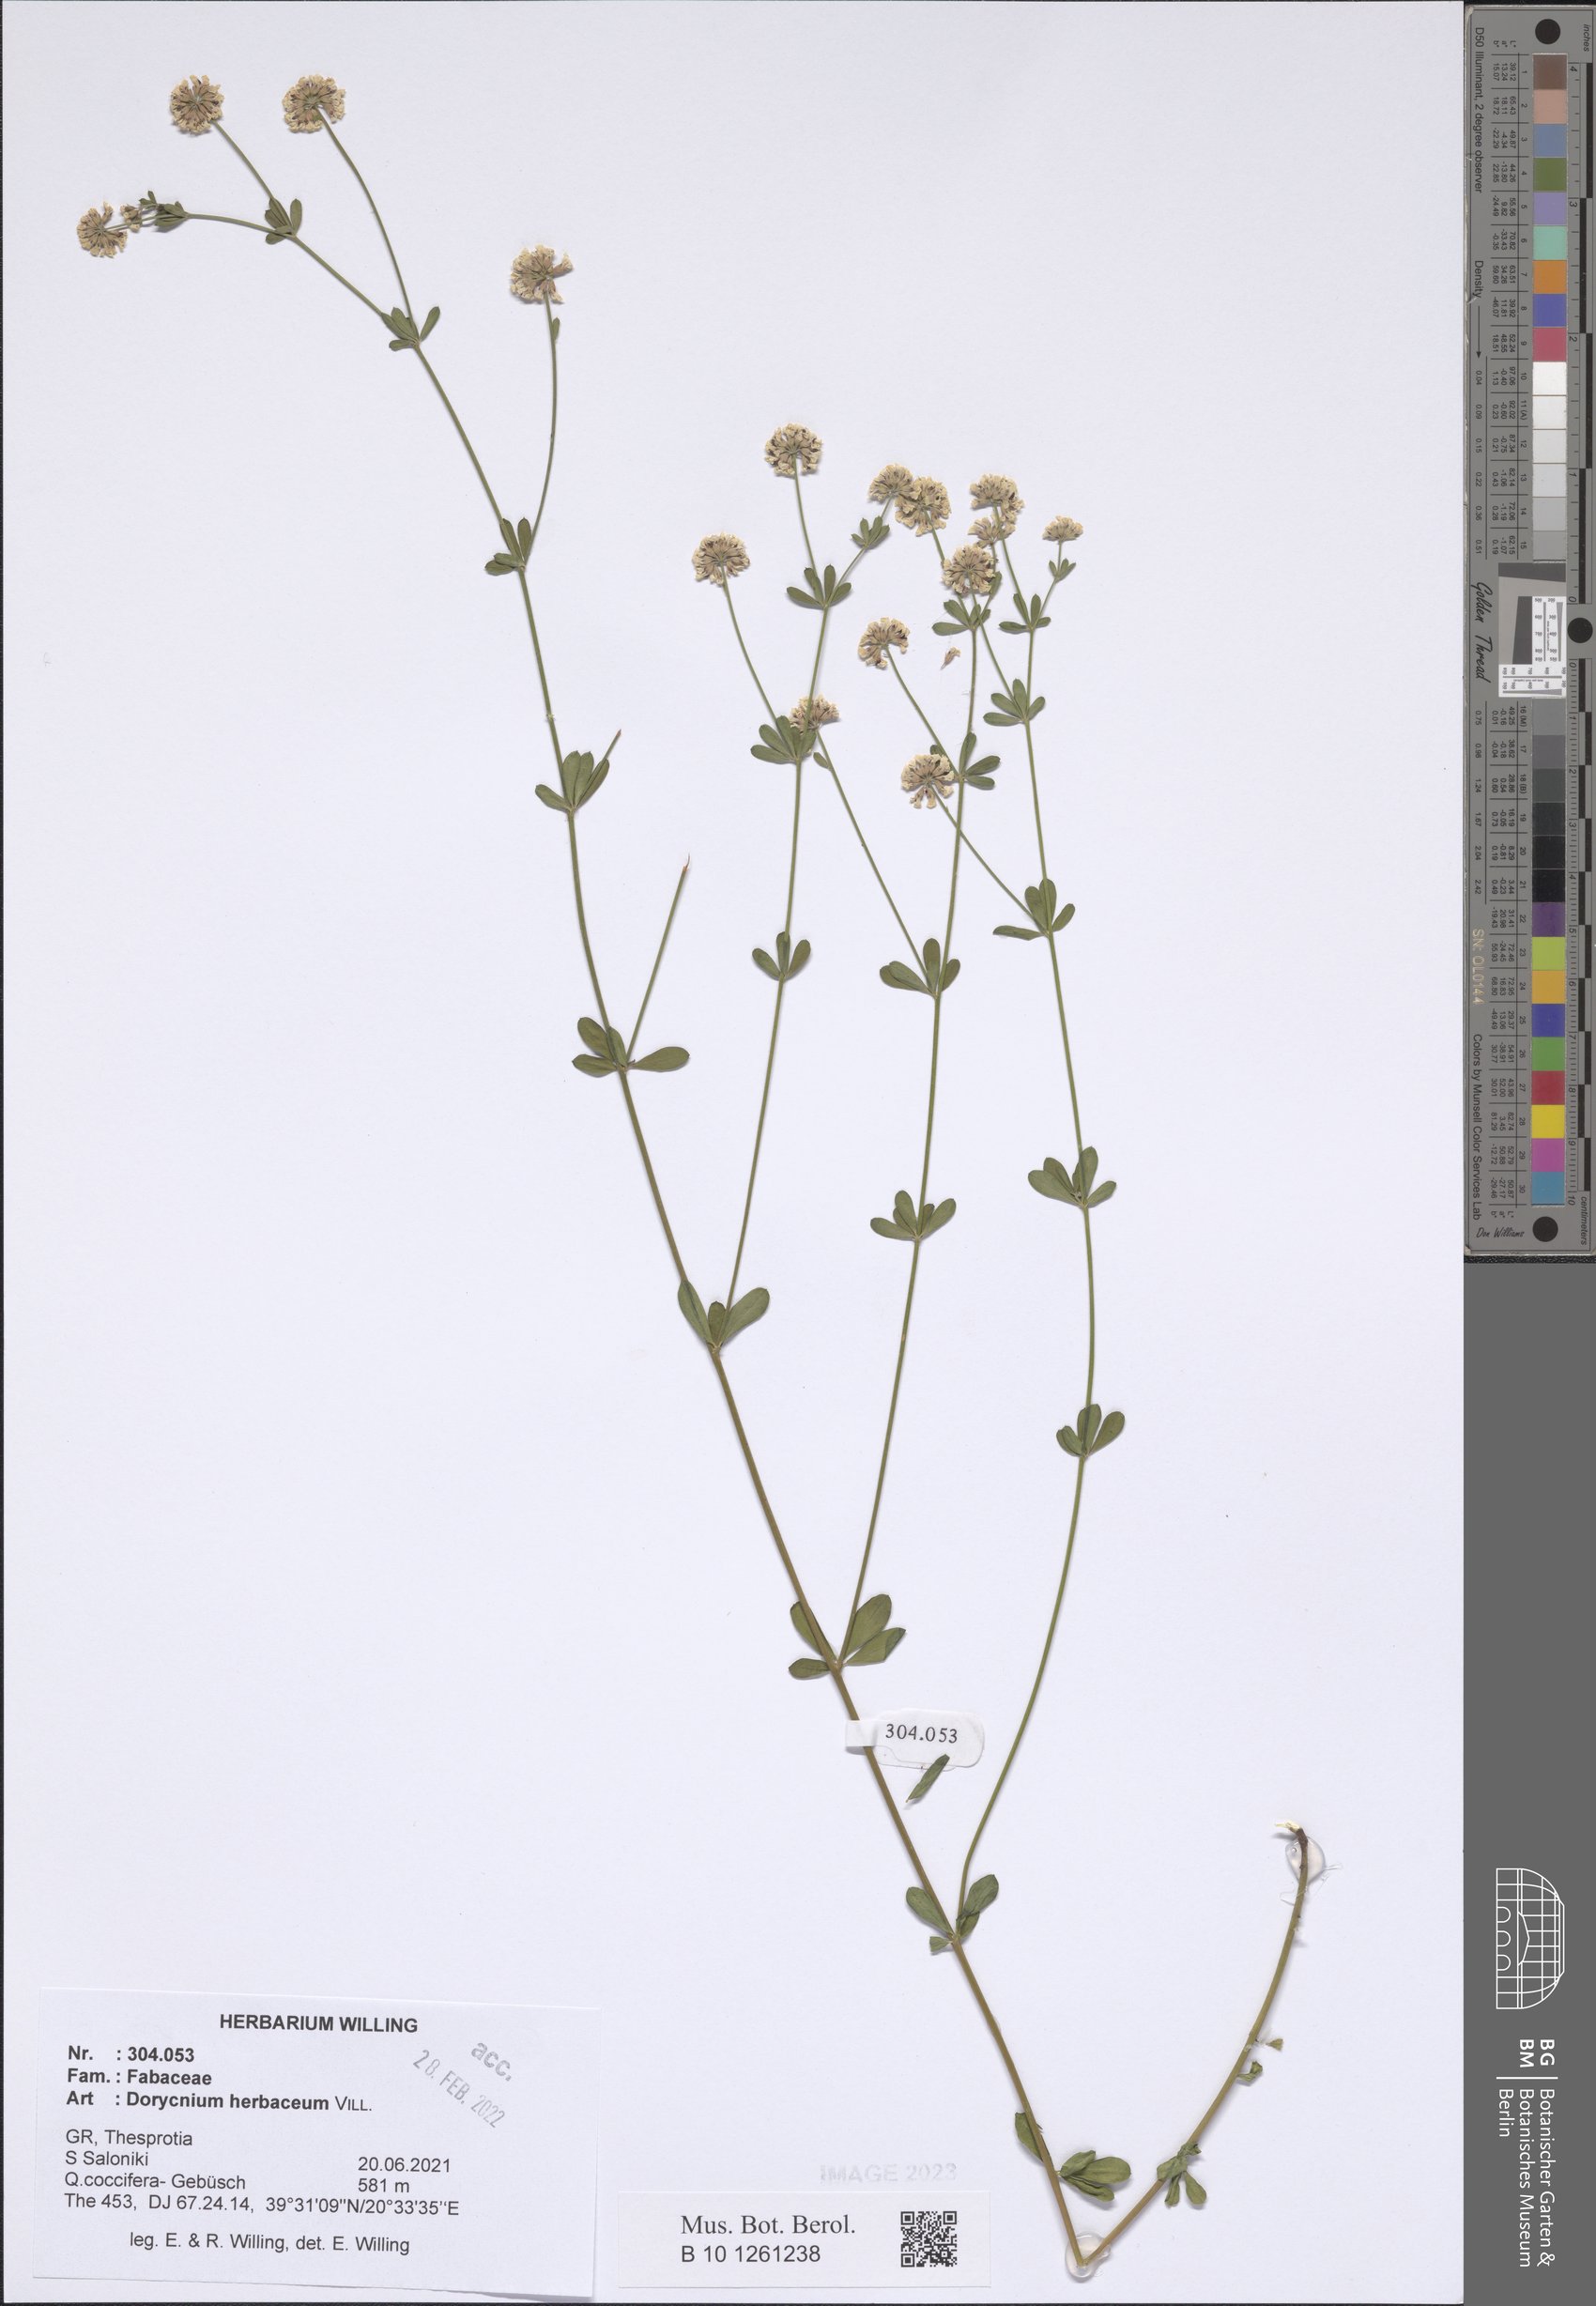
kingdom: Plantae
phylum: Tracheophyta
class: Magnoliopsida
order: Fabales
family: Fabaceae
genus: Lotus
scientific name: Lotus herbaceus
